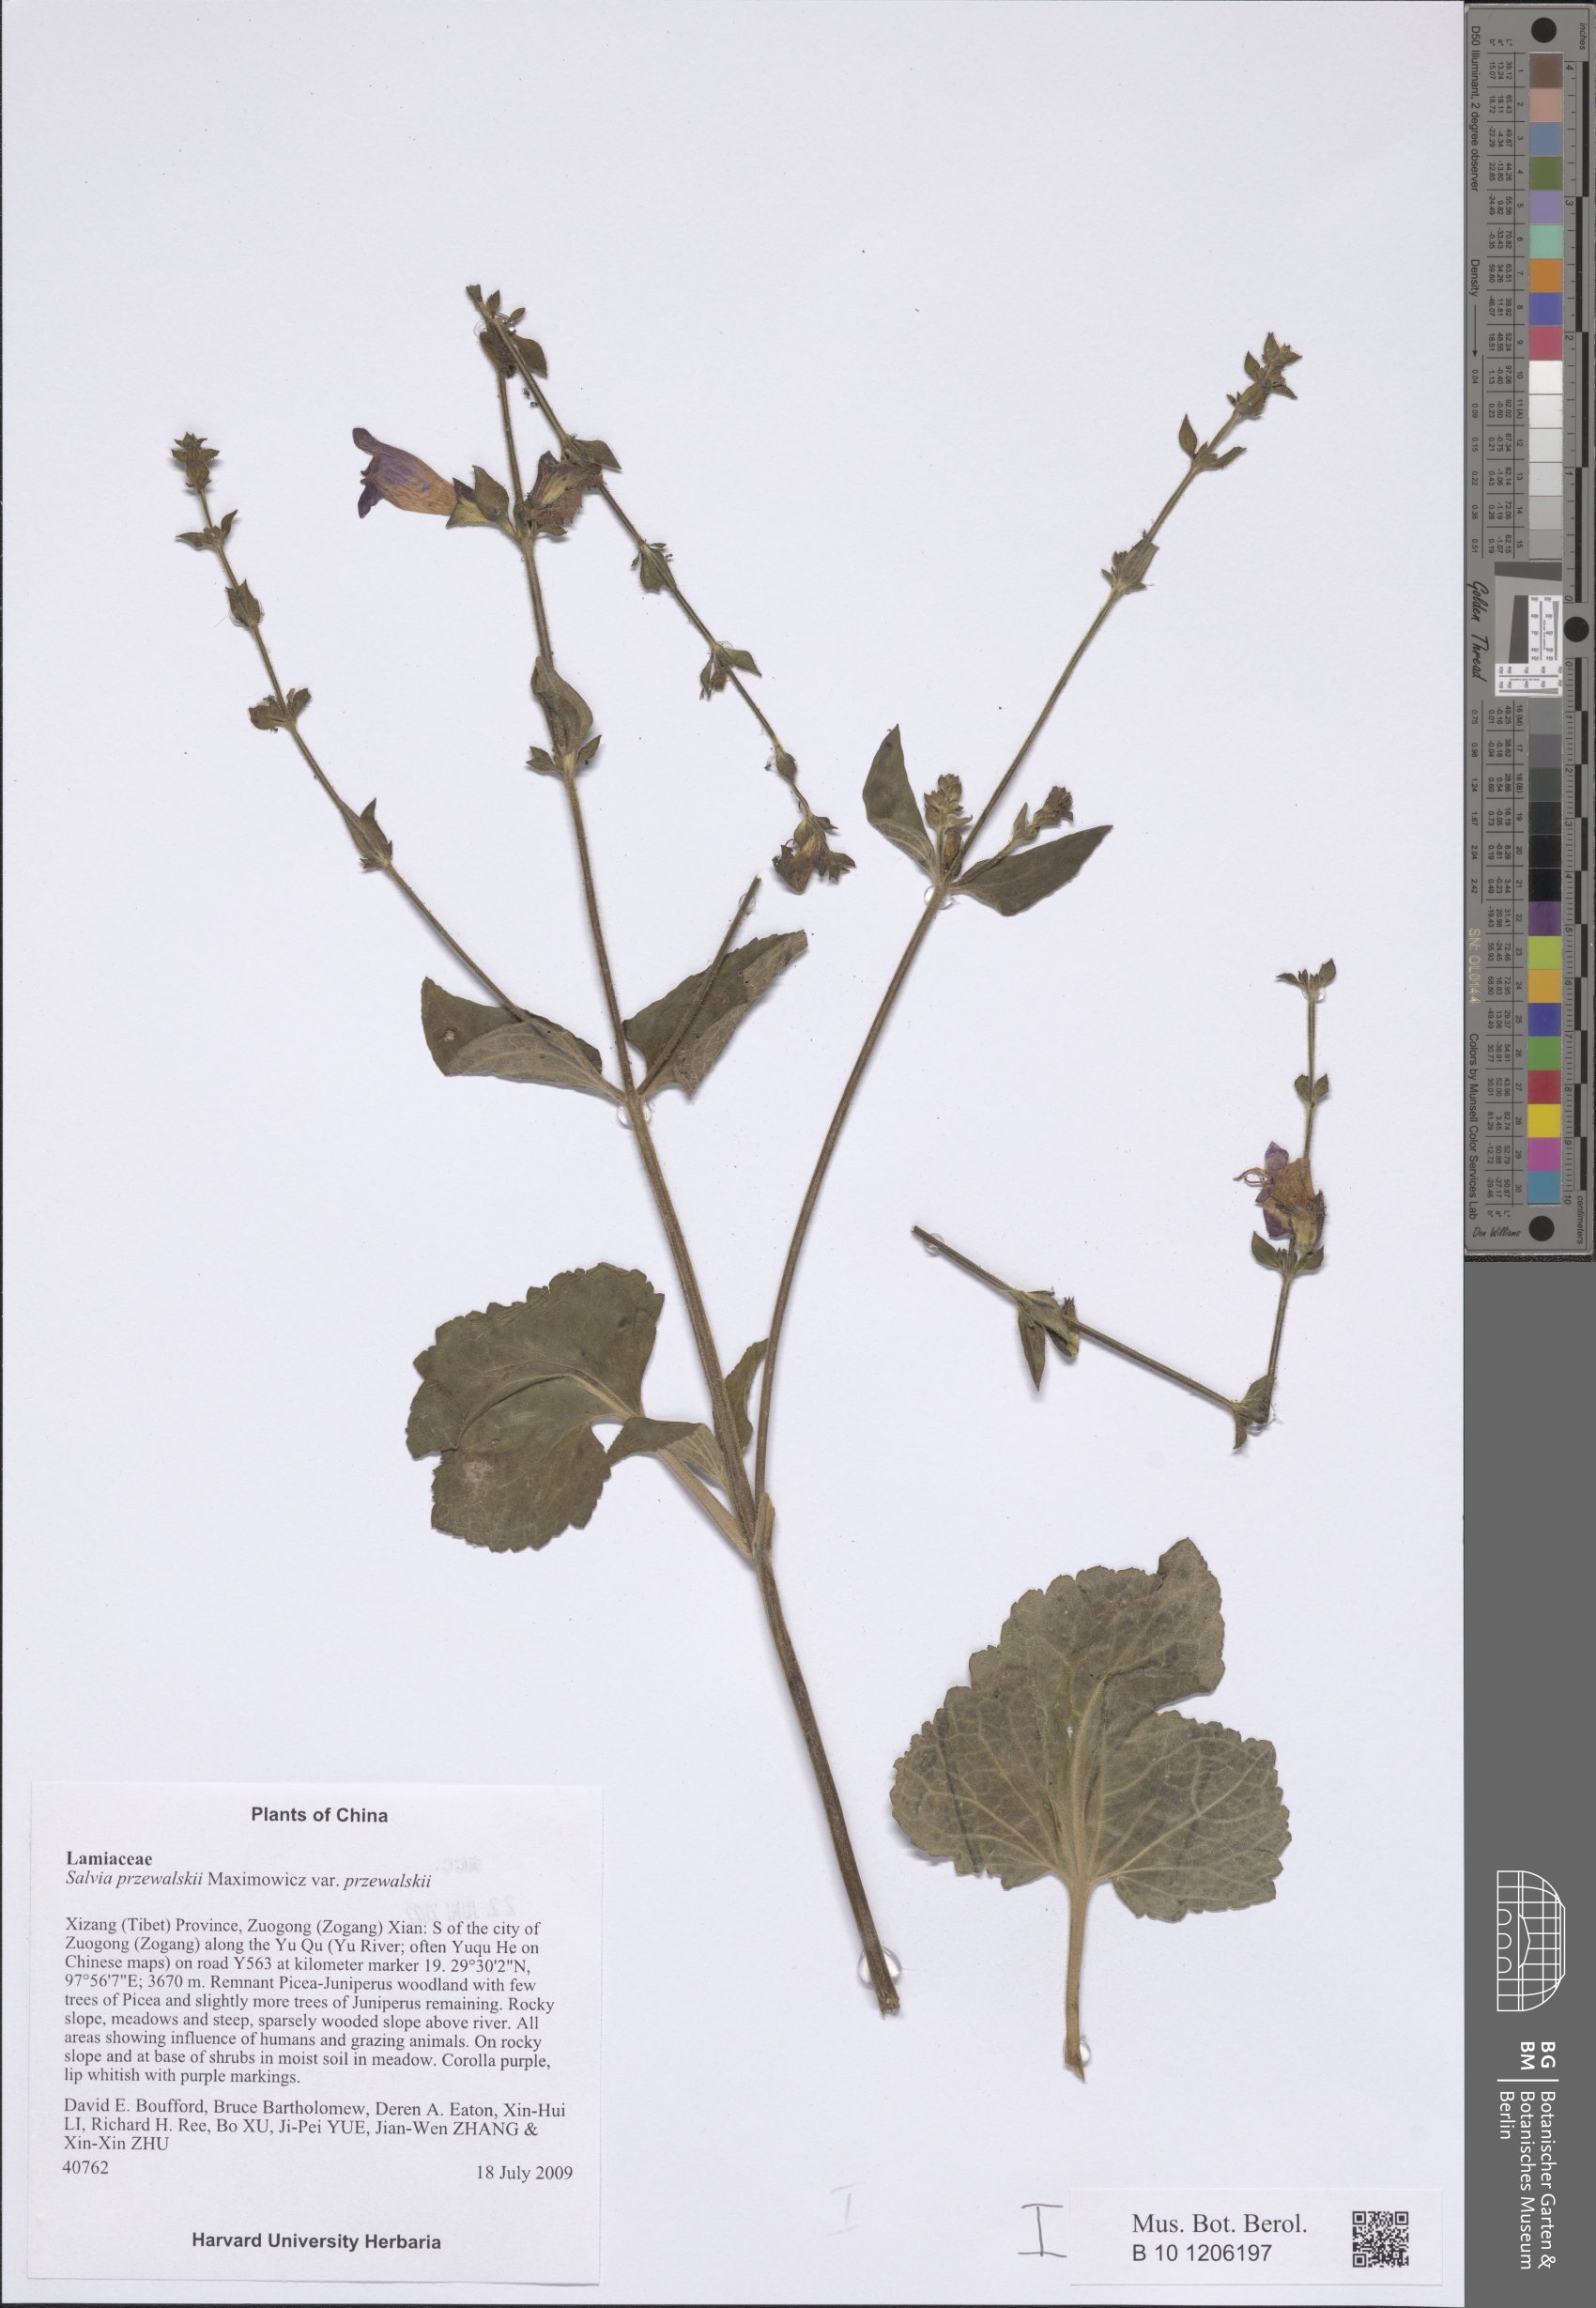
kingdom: Plantae
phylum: Tracheophyta
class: Magnoliopsida
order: Lamiales
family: Lamiaceae
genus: Salvia
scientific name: Salvia przewalskii
